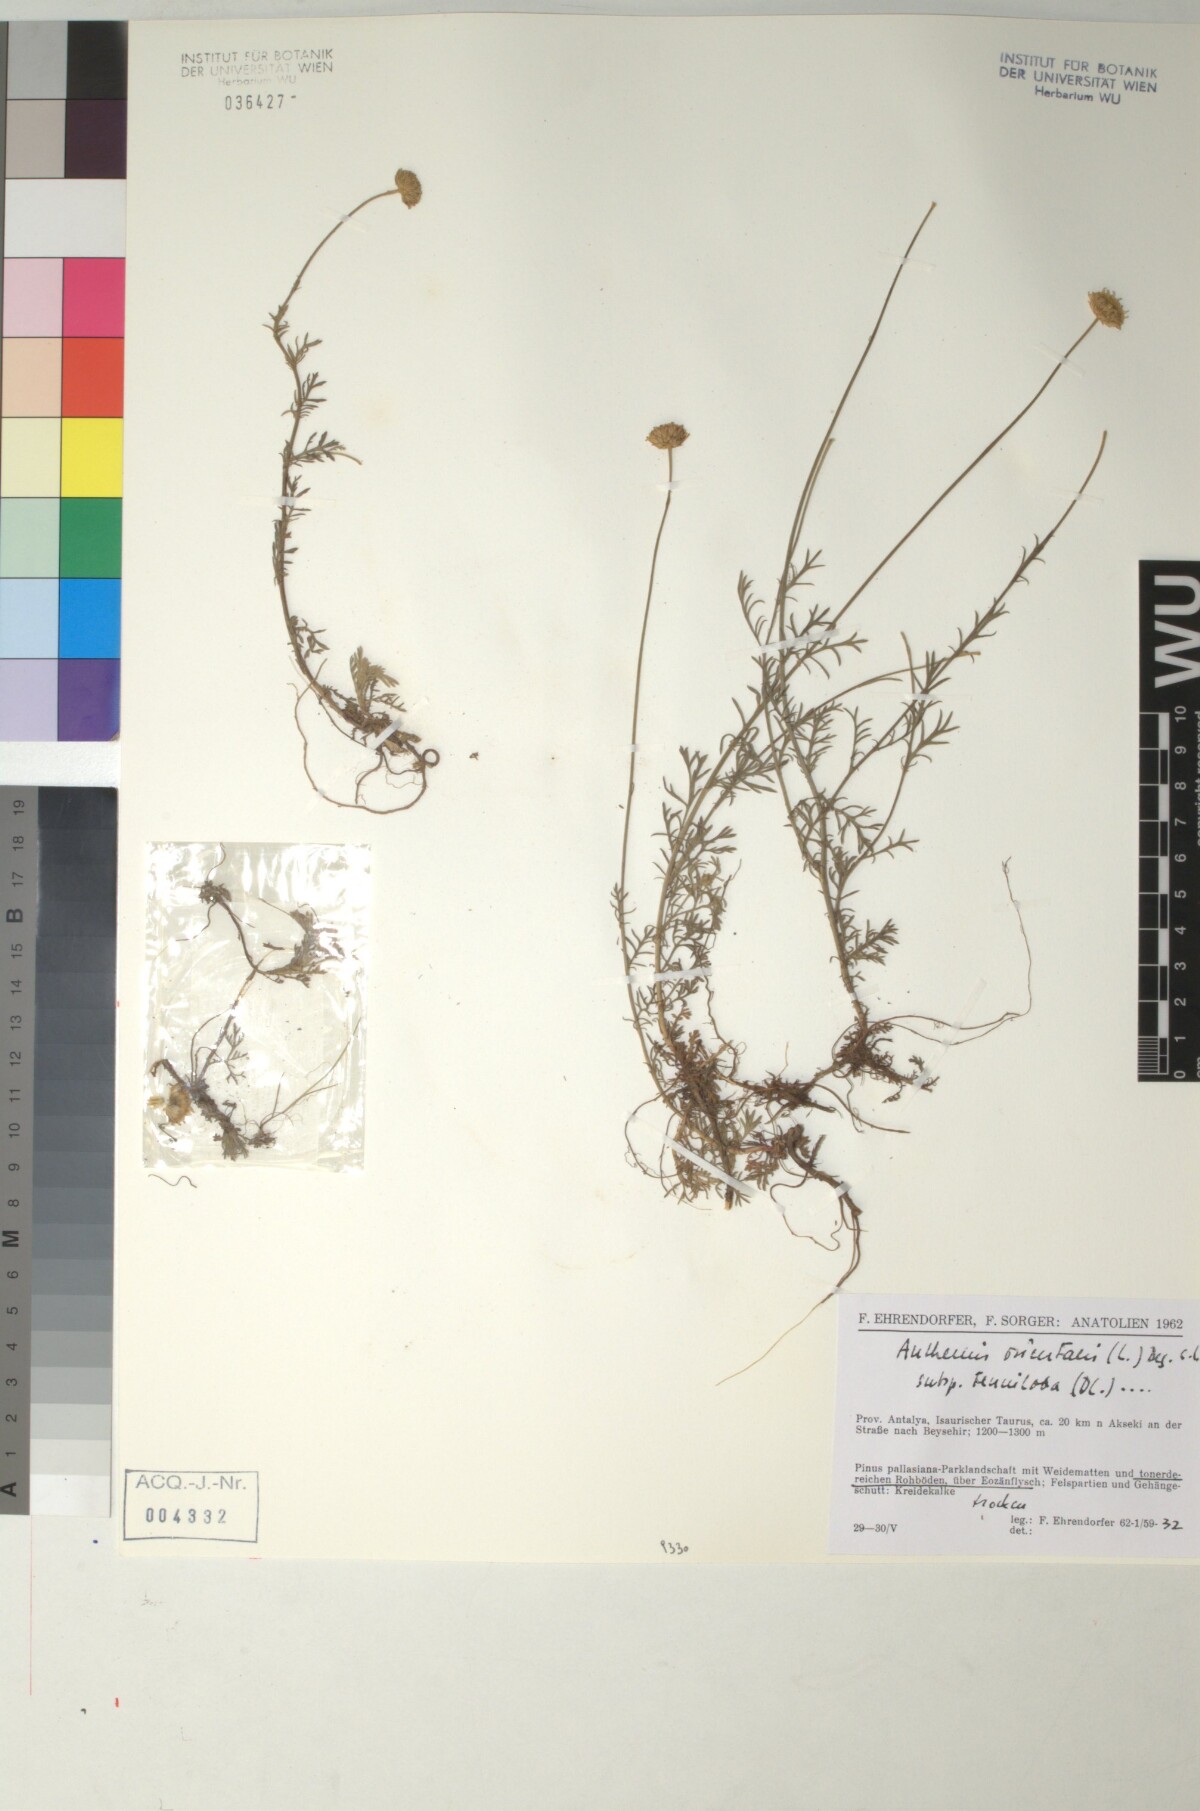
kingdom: Plantae
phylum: Tracheophyta
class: Magnoliopsida
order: Asterales
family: Asteraceae
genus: Anthemis
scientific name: Anthemis orientalis
